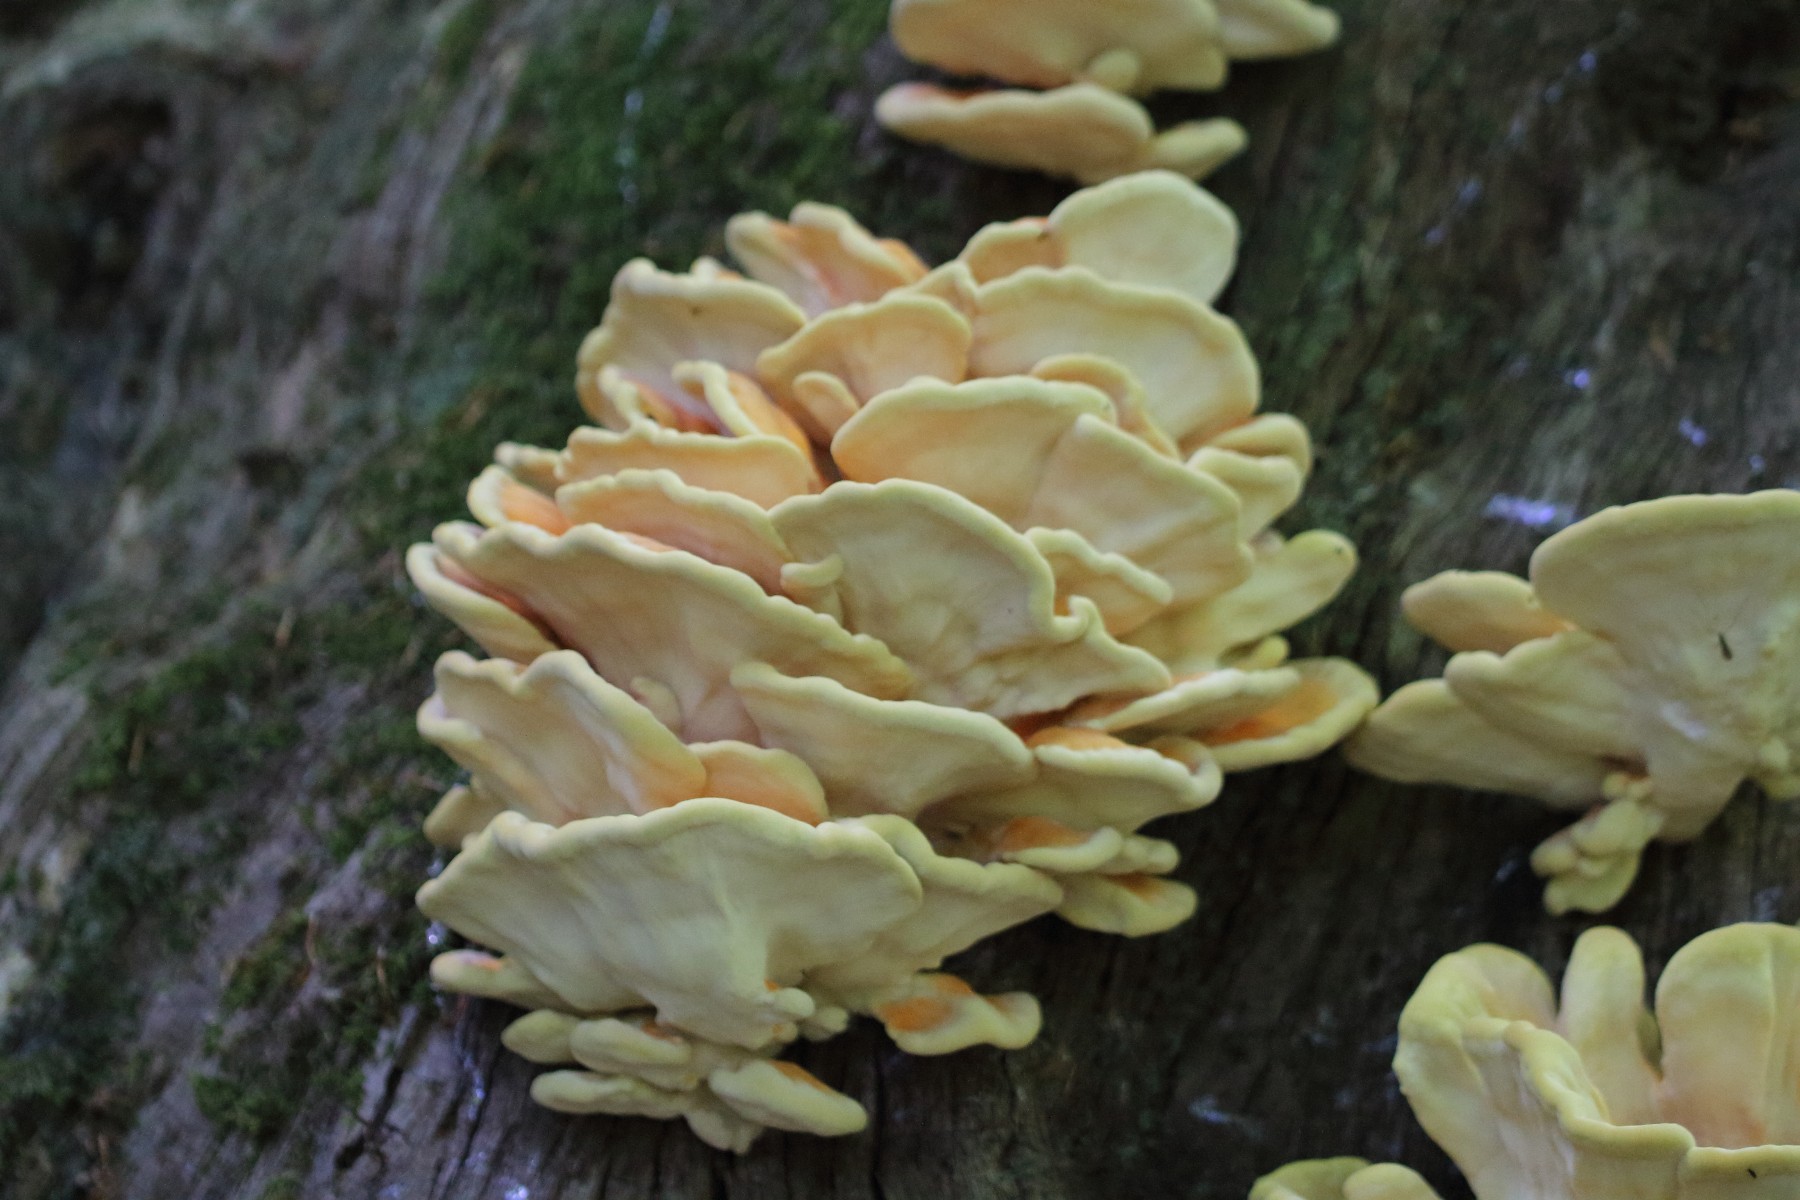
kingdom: Fungi
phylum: Basidiomycota
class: Agaricomycetes
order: Polyporales
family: Laetiporaceae
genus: Laetiporus
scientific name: Laetiporus sulphureus
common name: svovlporesvamp
